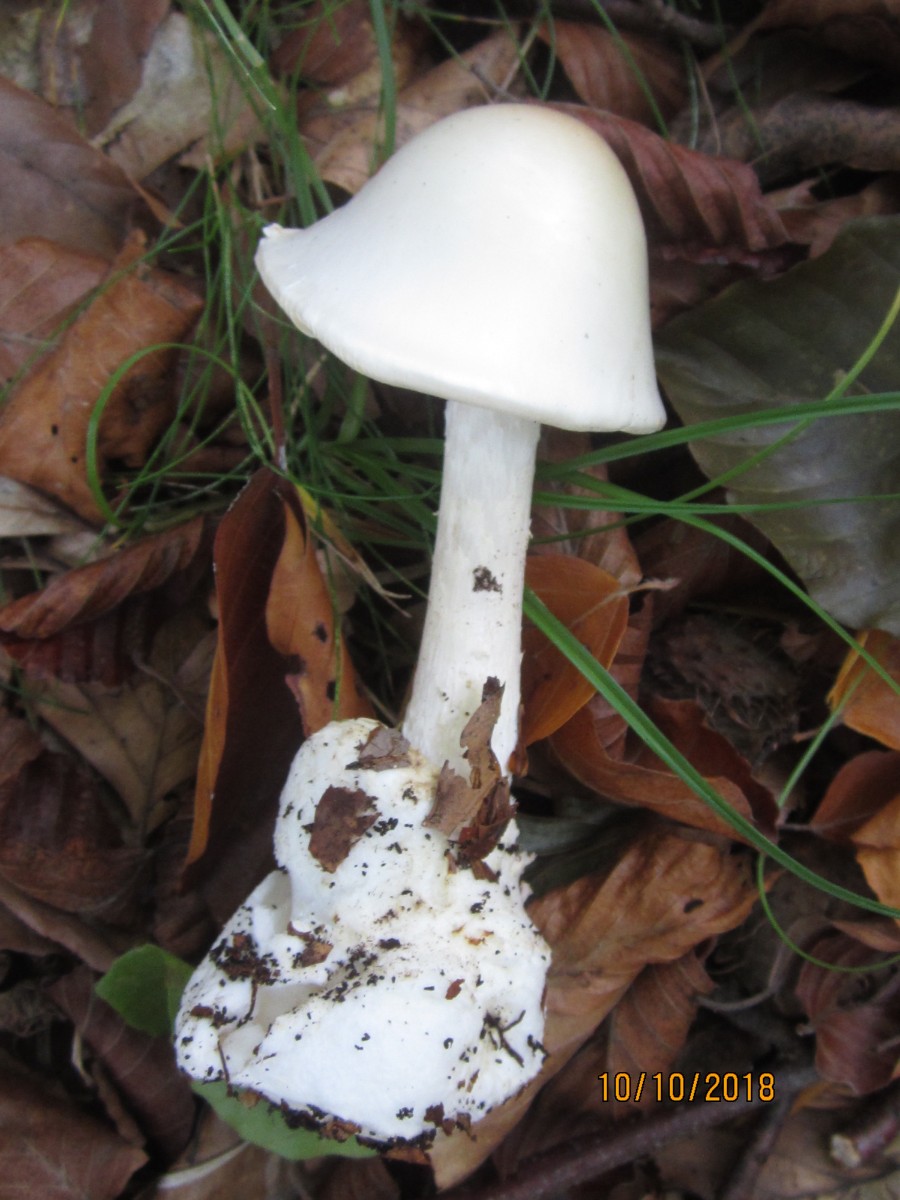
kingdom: Fungi
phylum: Basidiomycota
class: Agaricomycetes
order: Agaricales
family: Amanitaceae
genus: Amanita
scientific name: Amanita virosa
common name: snehvid fluesvamp
